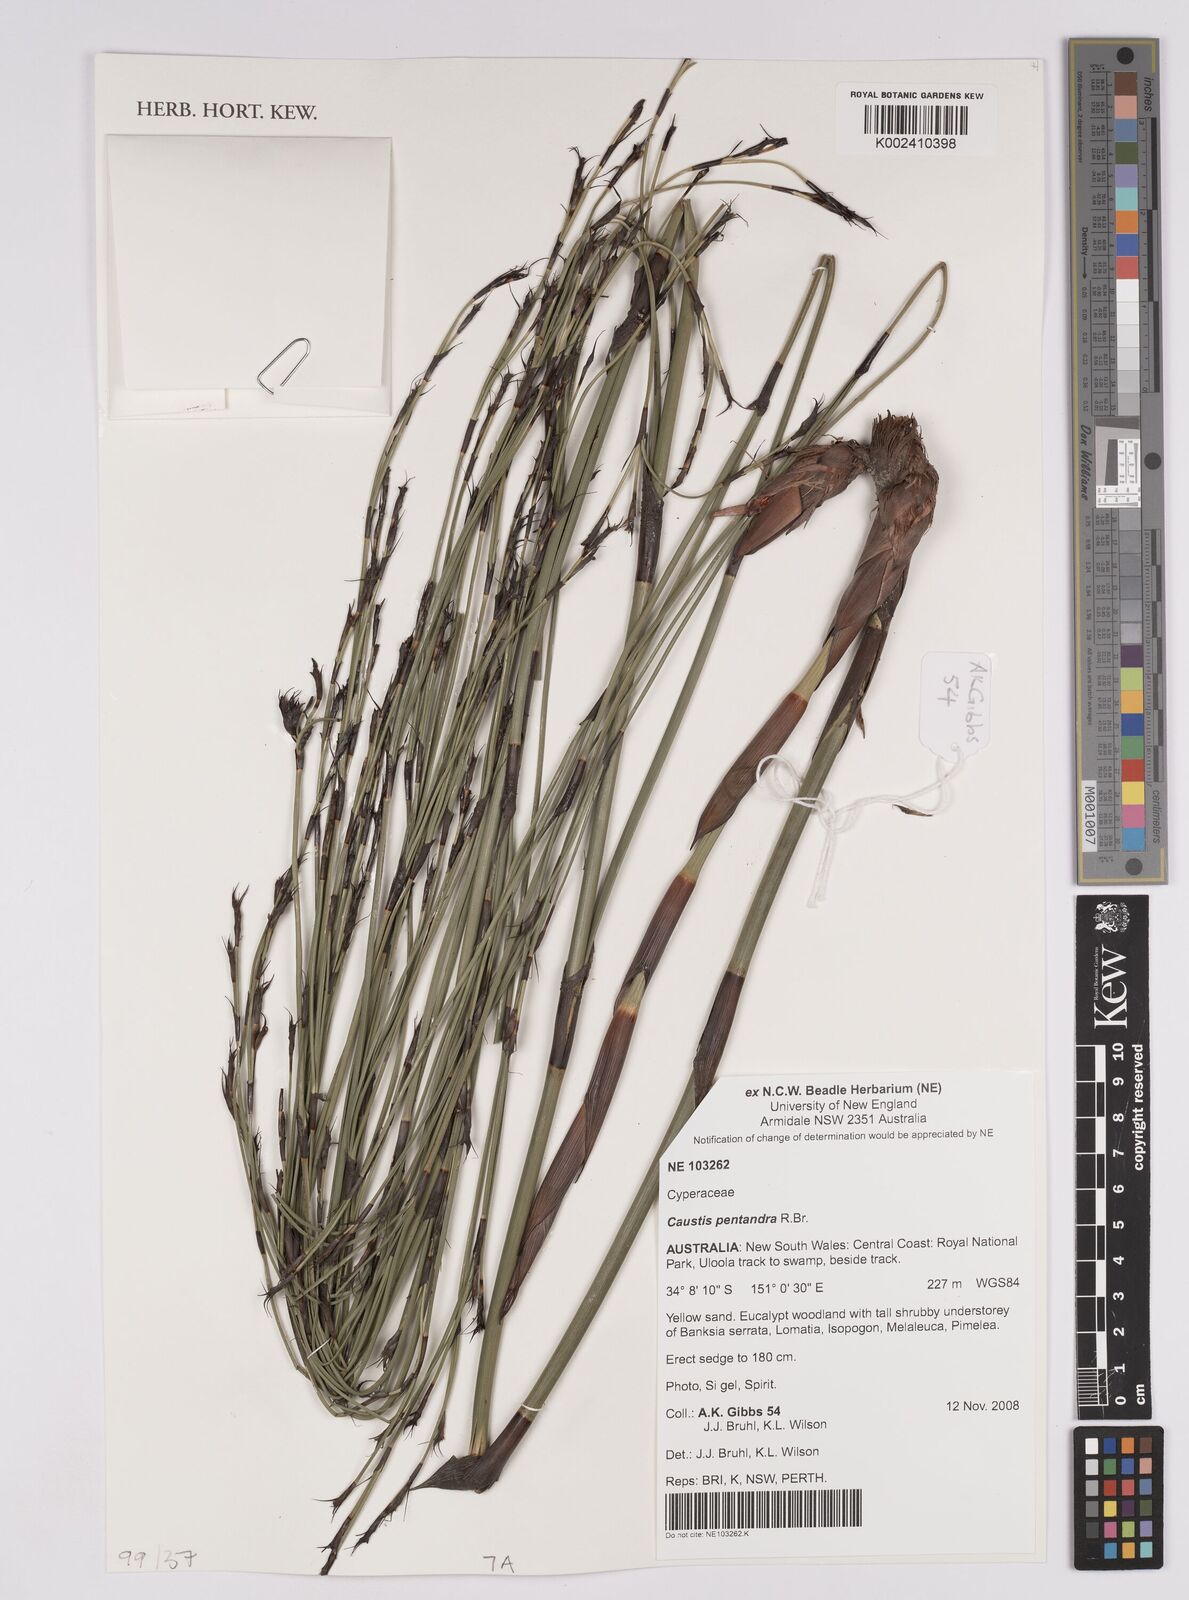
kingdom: Plantae
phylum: Tracheophyta
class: Liliopsida
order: Poales
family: Cyperaceae
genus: Caustis
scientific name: Caustis pentandra
